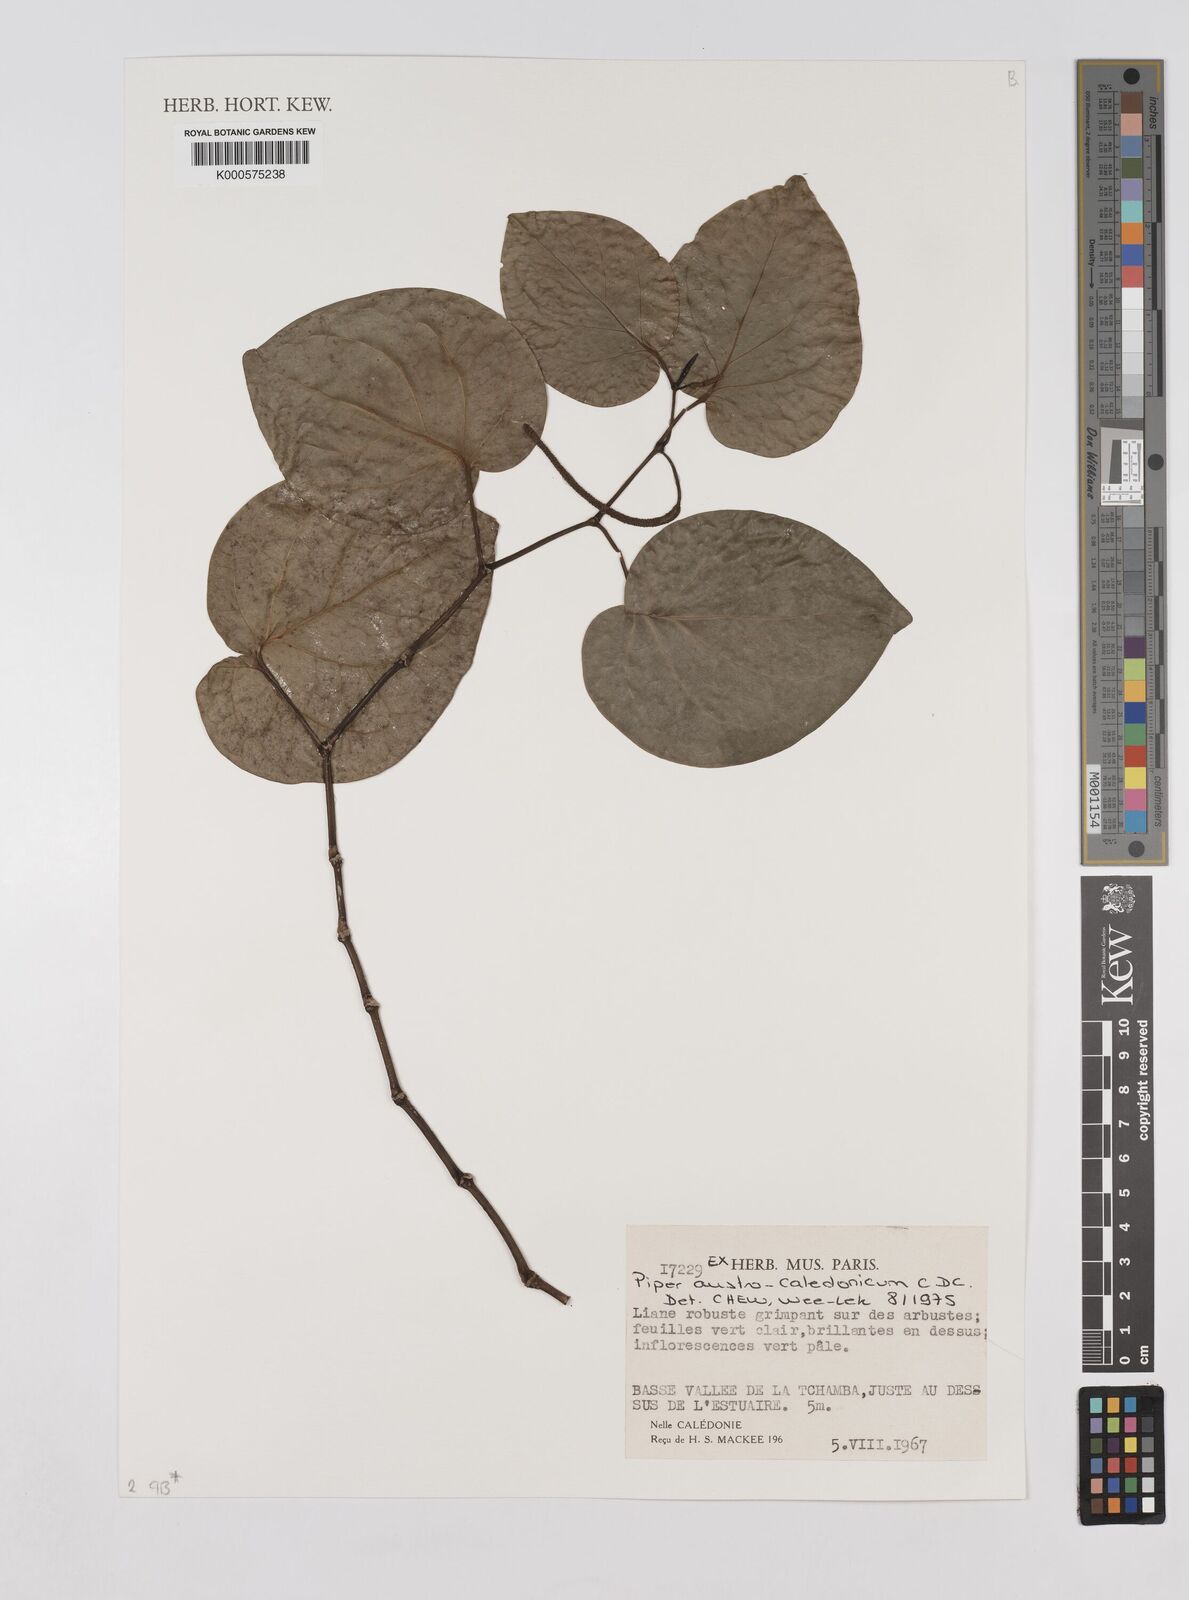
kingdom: Plantae
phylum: Tracheophyta
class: Magnoliopsida
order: Piperales
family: Piperaceae
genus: Piper
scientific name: Piper insectifugum
